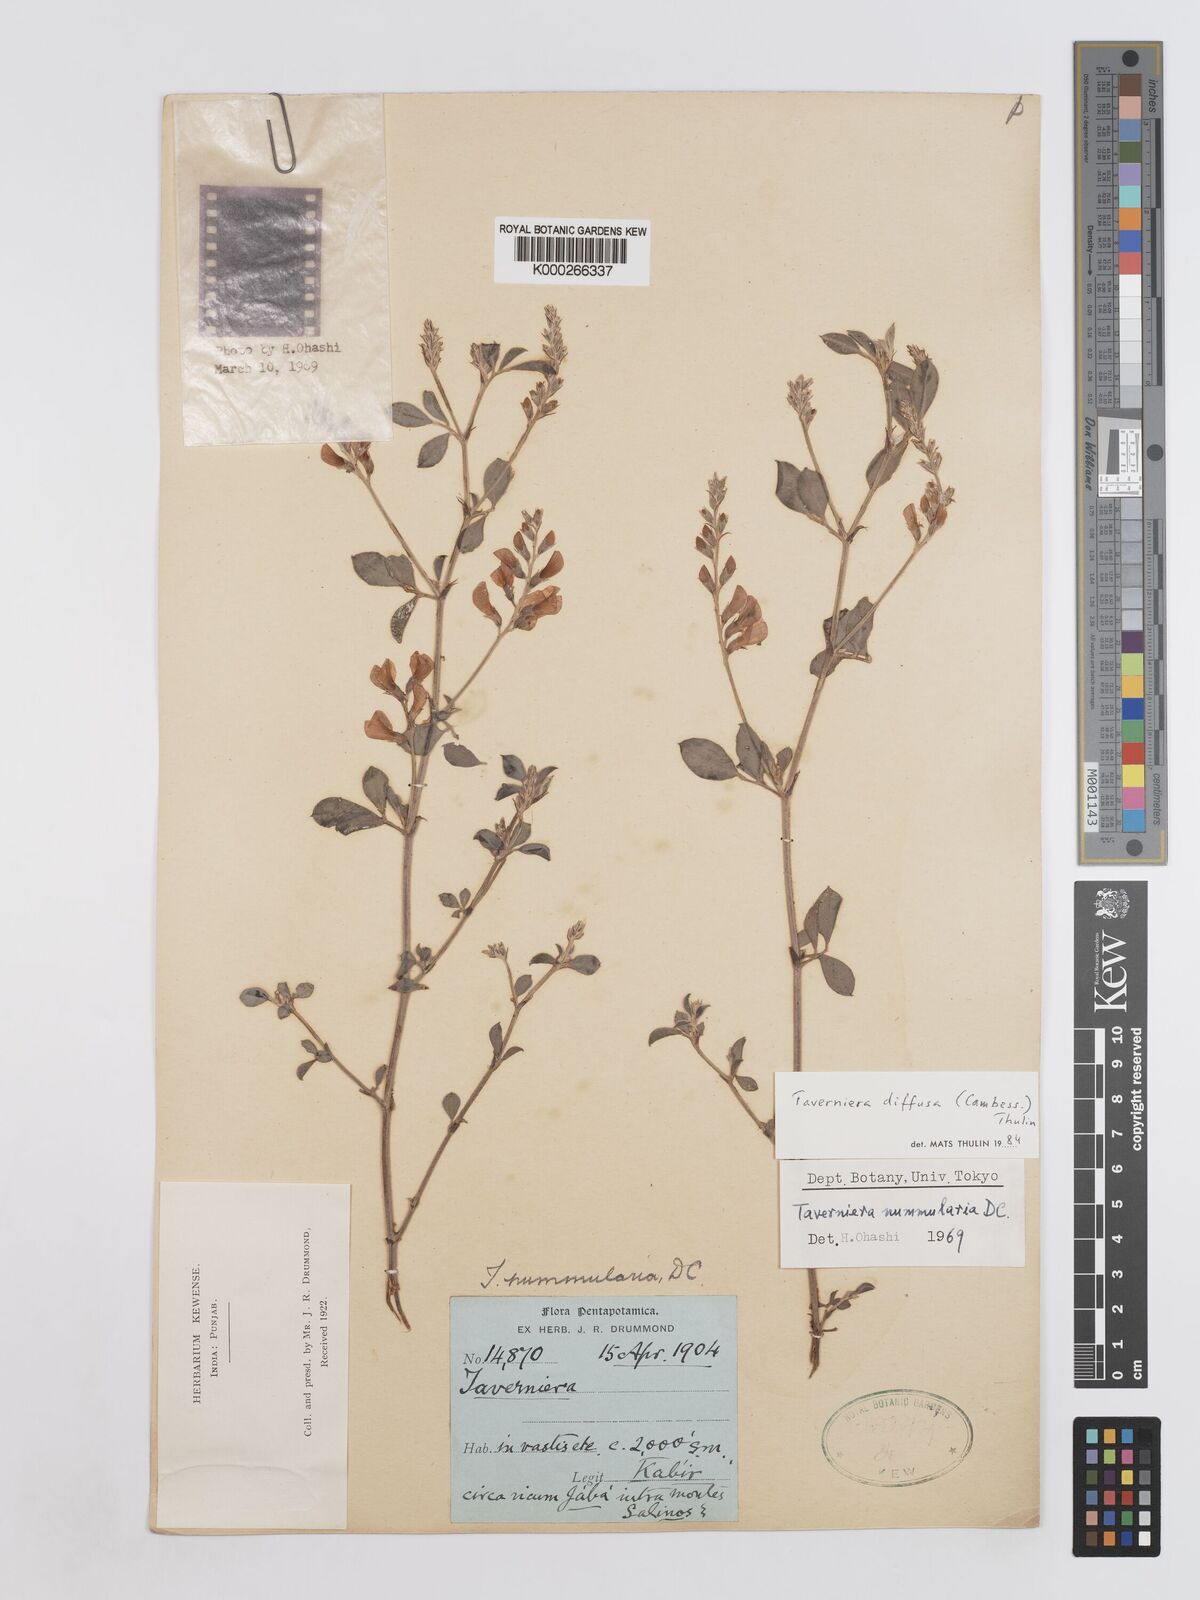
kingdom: Plantae
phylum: Tracheophyta
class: Magnoliopsida
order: Fabales
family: Fabaceae
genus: Taverniera
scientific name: Taverniera diffusa
